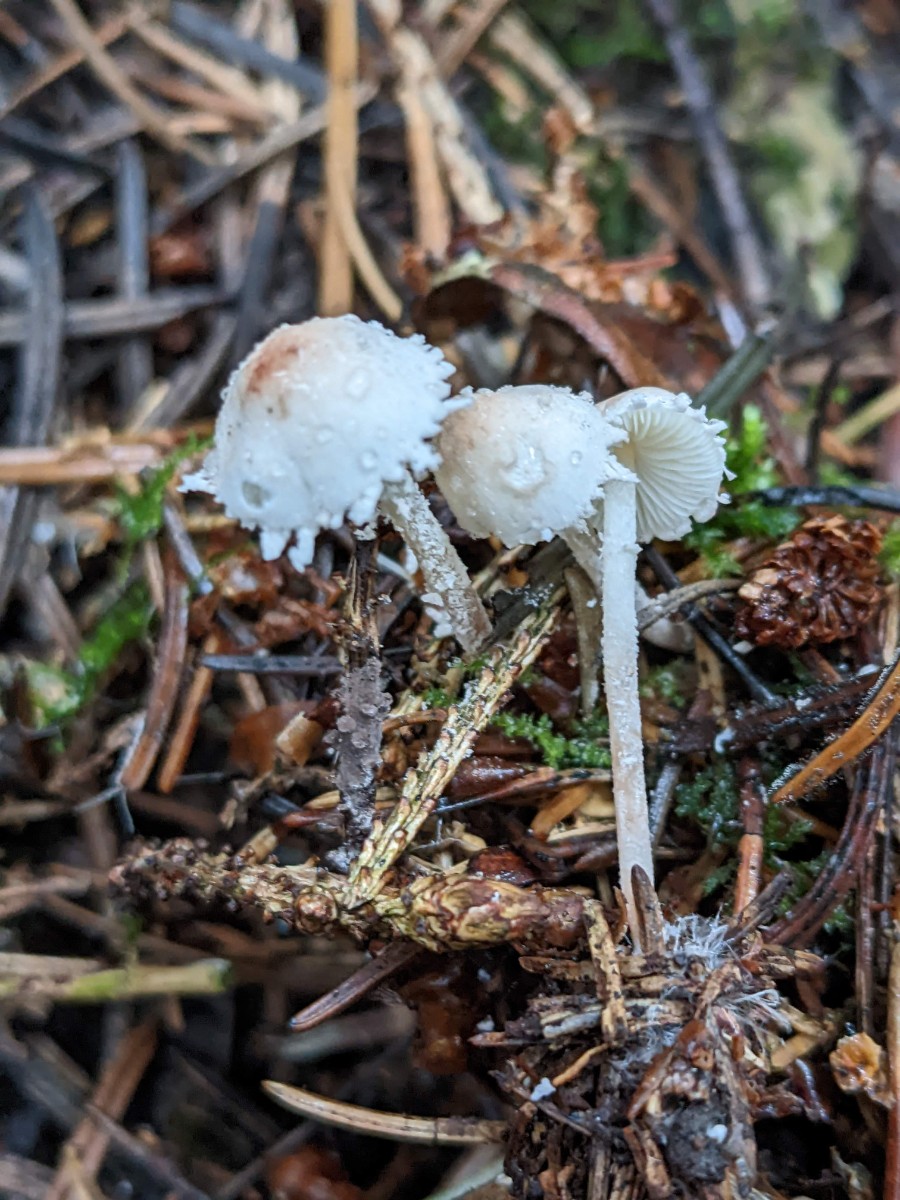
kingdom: Fungi
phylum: Basidiomycota
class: Agaricomycetes
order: Agaricales
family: Agaricaceae
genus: Cystolepiota
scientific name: Cystolepiota seminuda
